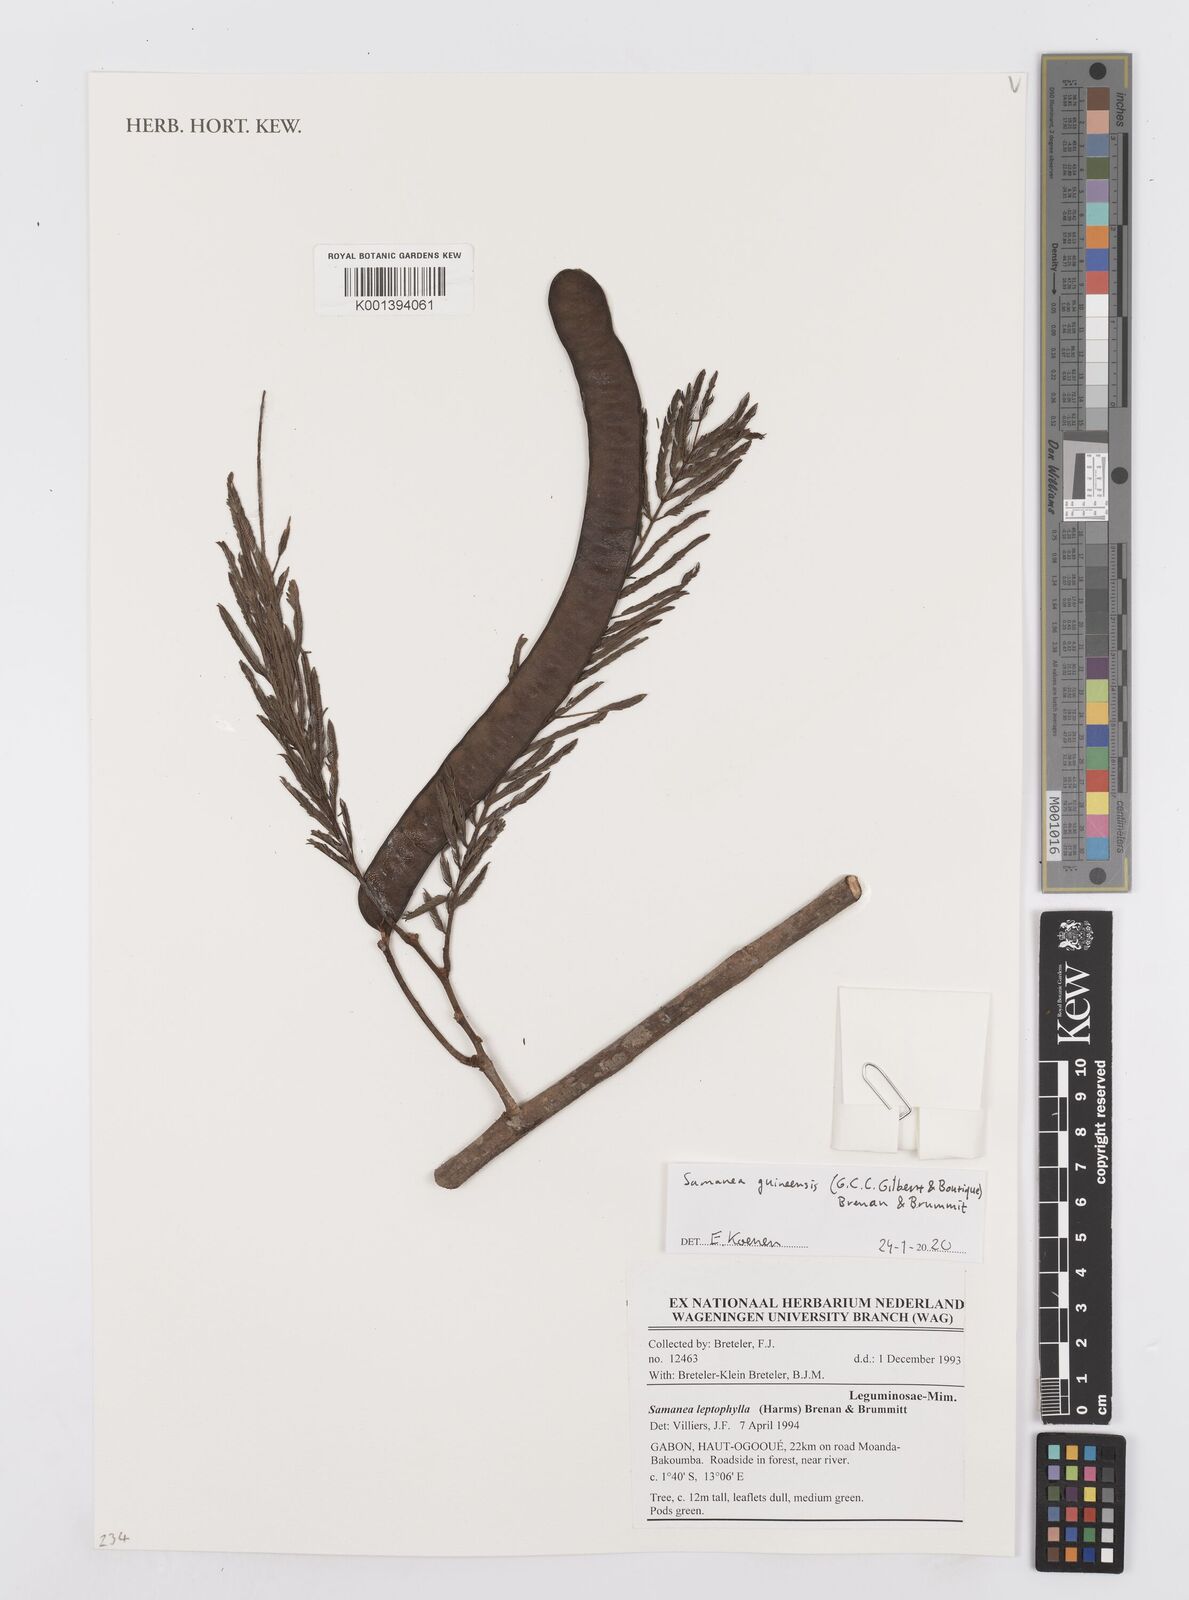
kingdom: Plantae
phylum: Tracheophyta
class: Magnoliopsida
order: Fabales
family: Fabaceae
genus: Samanea
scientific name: Samanea leptophylla
